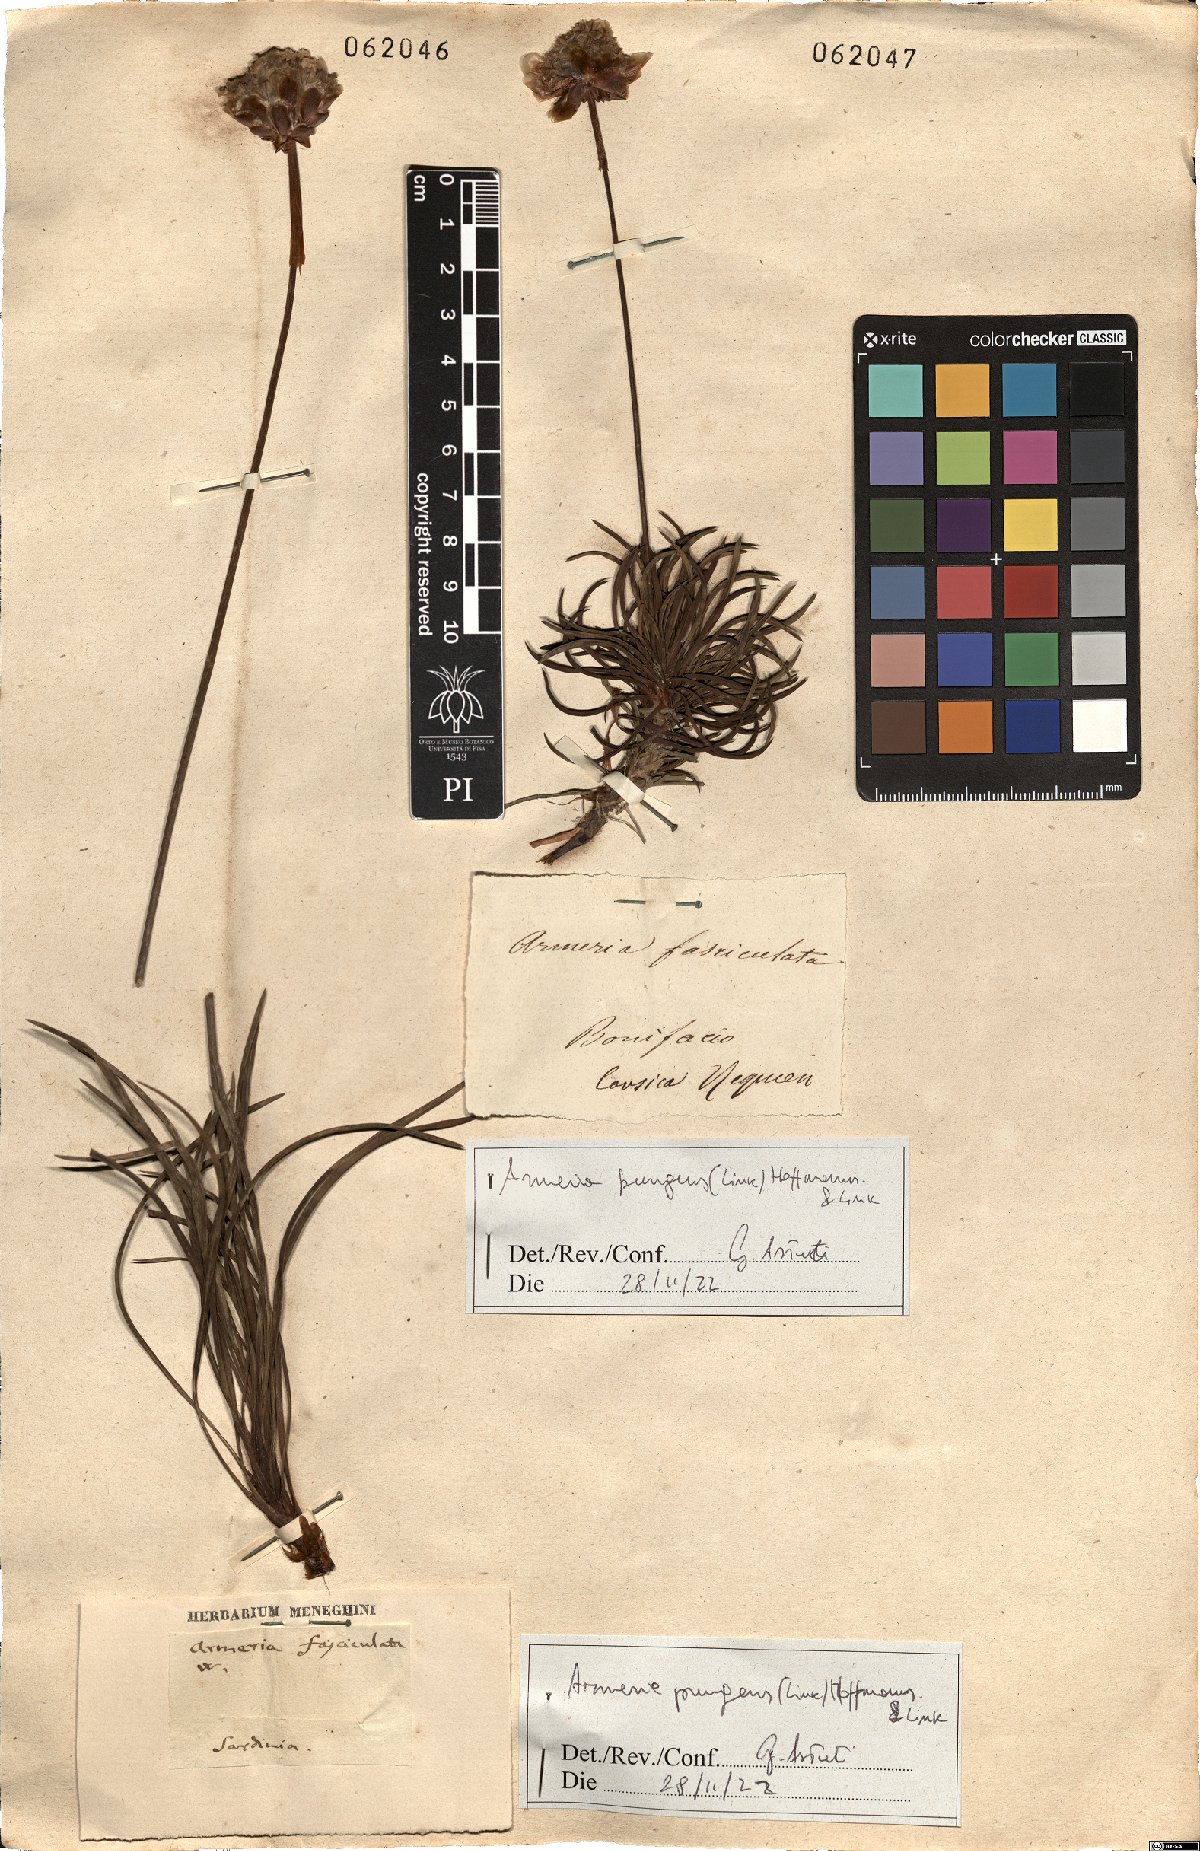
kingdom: Plantae
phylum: Tracheophyta
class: Magnoliopsida
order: Caryophyllales
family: Plumbaginaceae
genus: Armeria
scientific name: Armeria pungens
